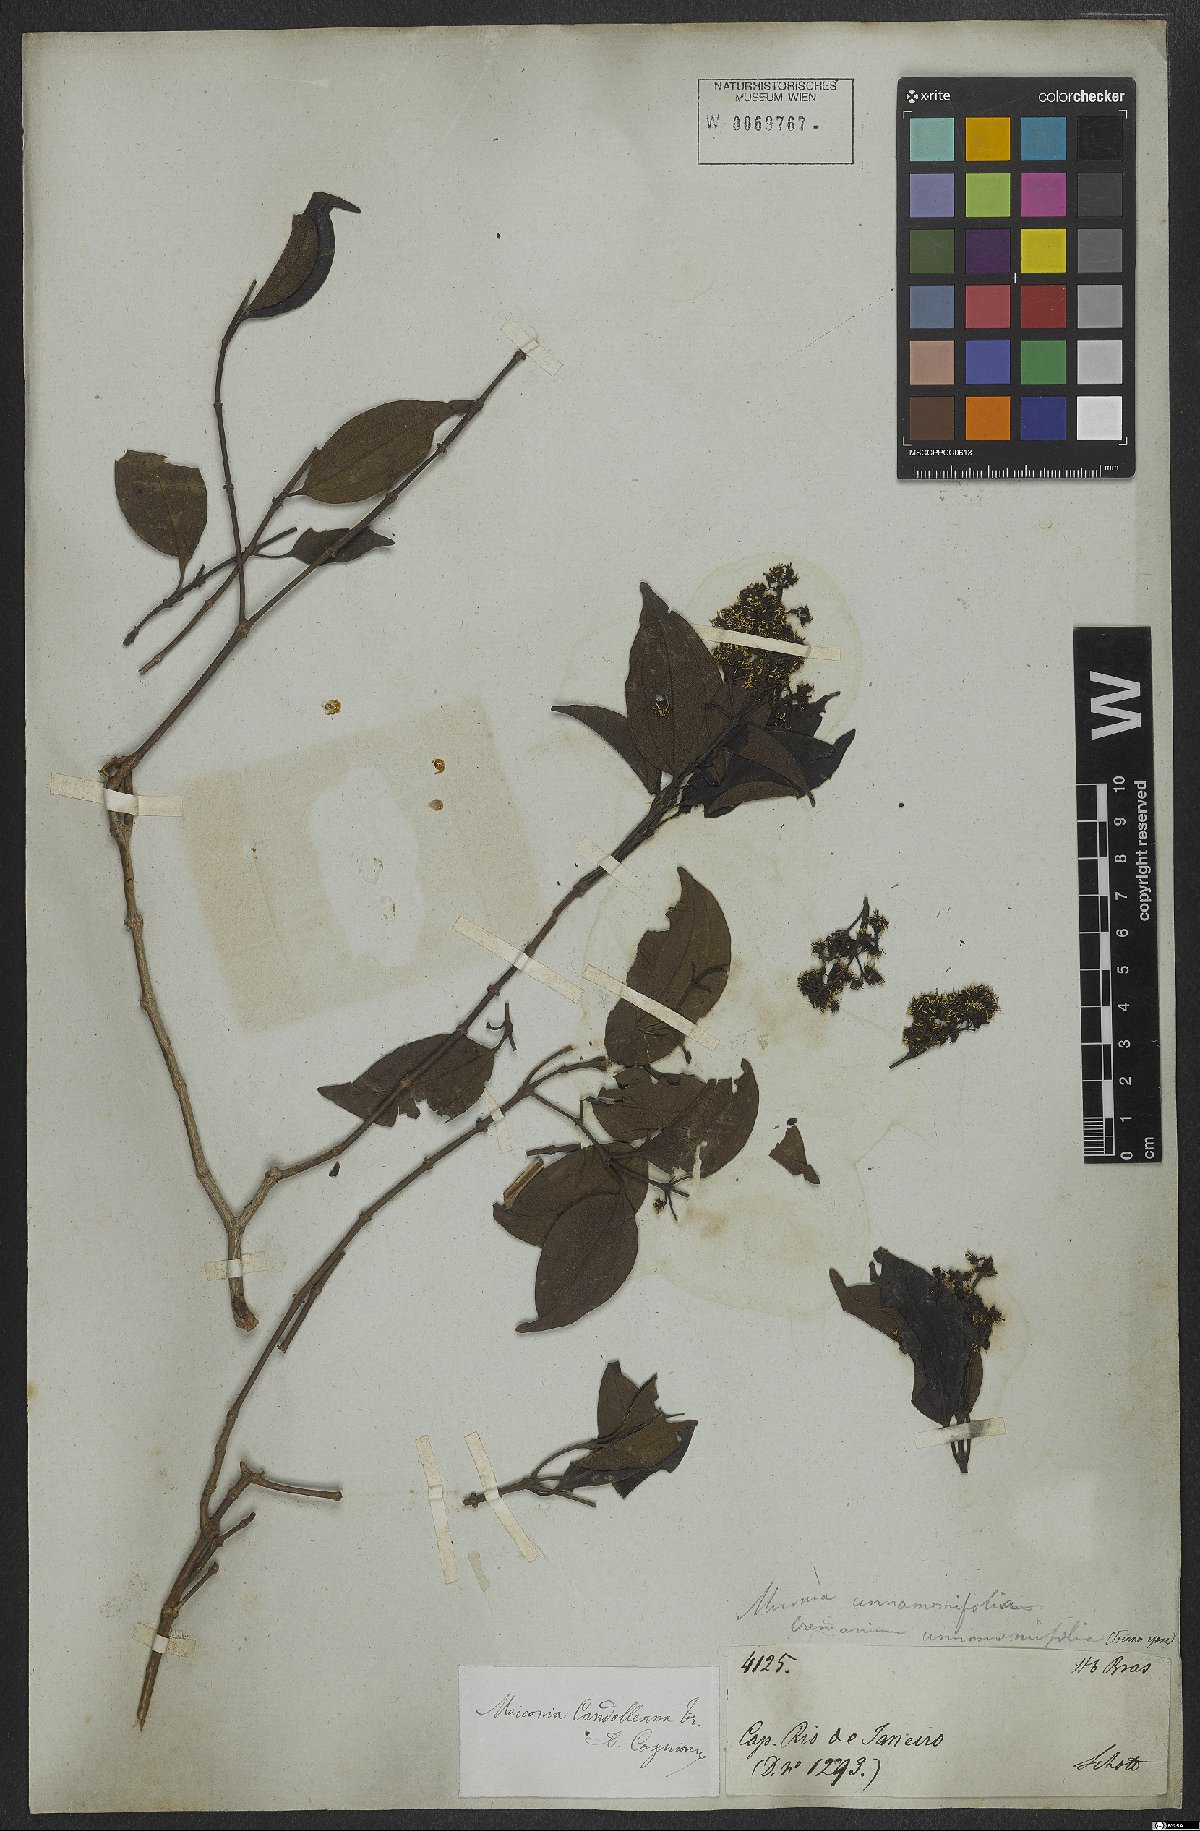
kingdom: Plantae
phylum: Tracheophyta
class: Magnoliopsida
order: Myrtales
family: Melastomataceae
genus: Miconia
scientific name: Miconia cinnamomifolia
